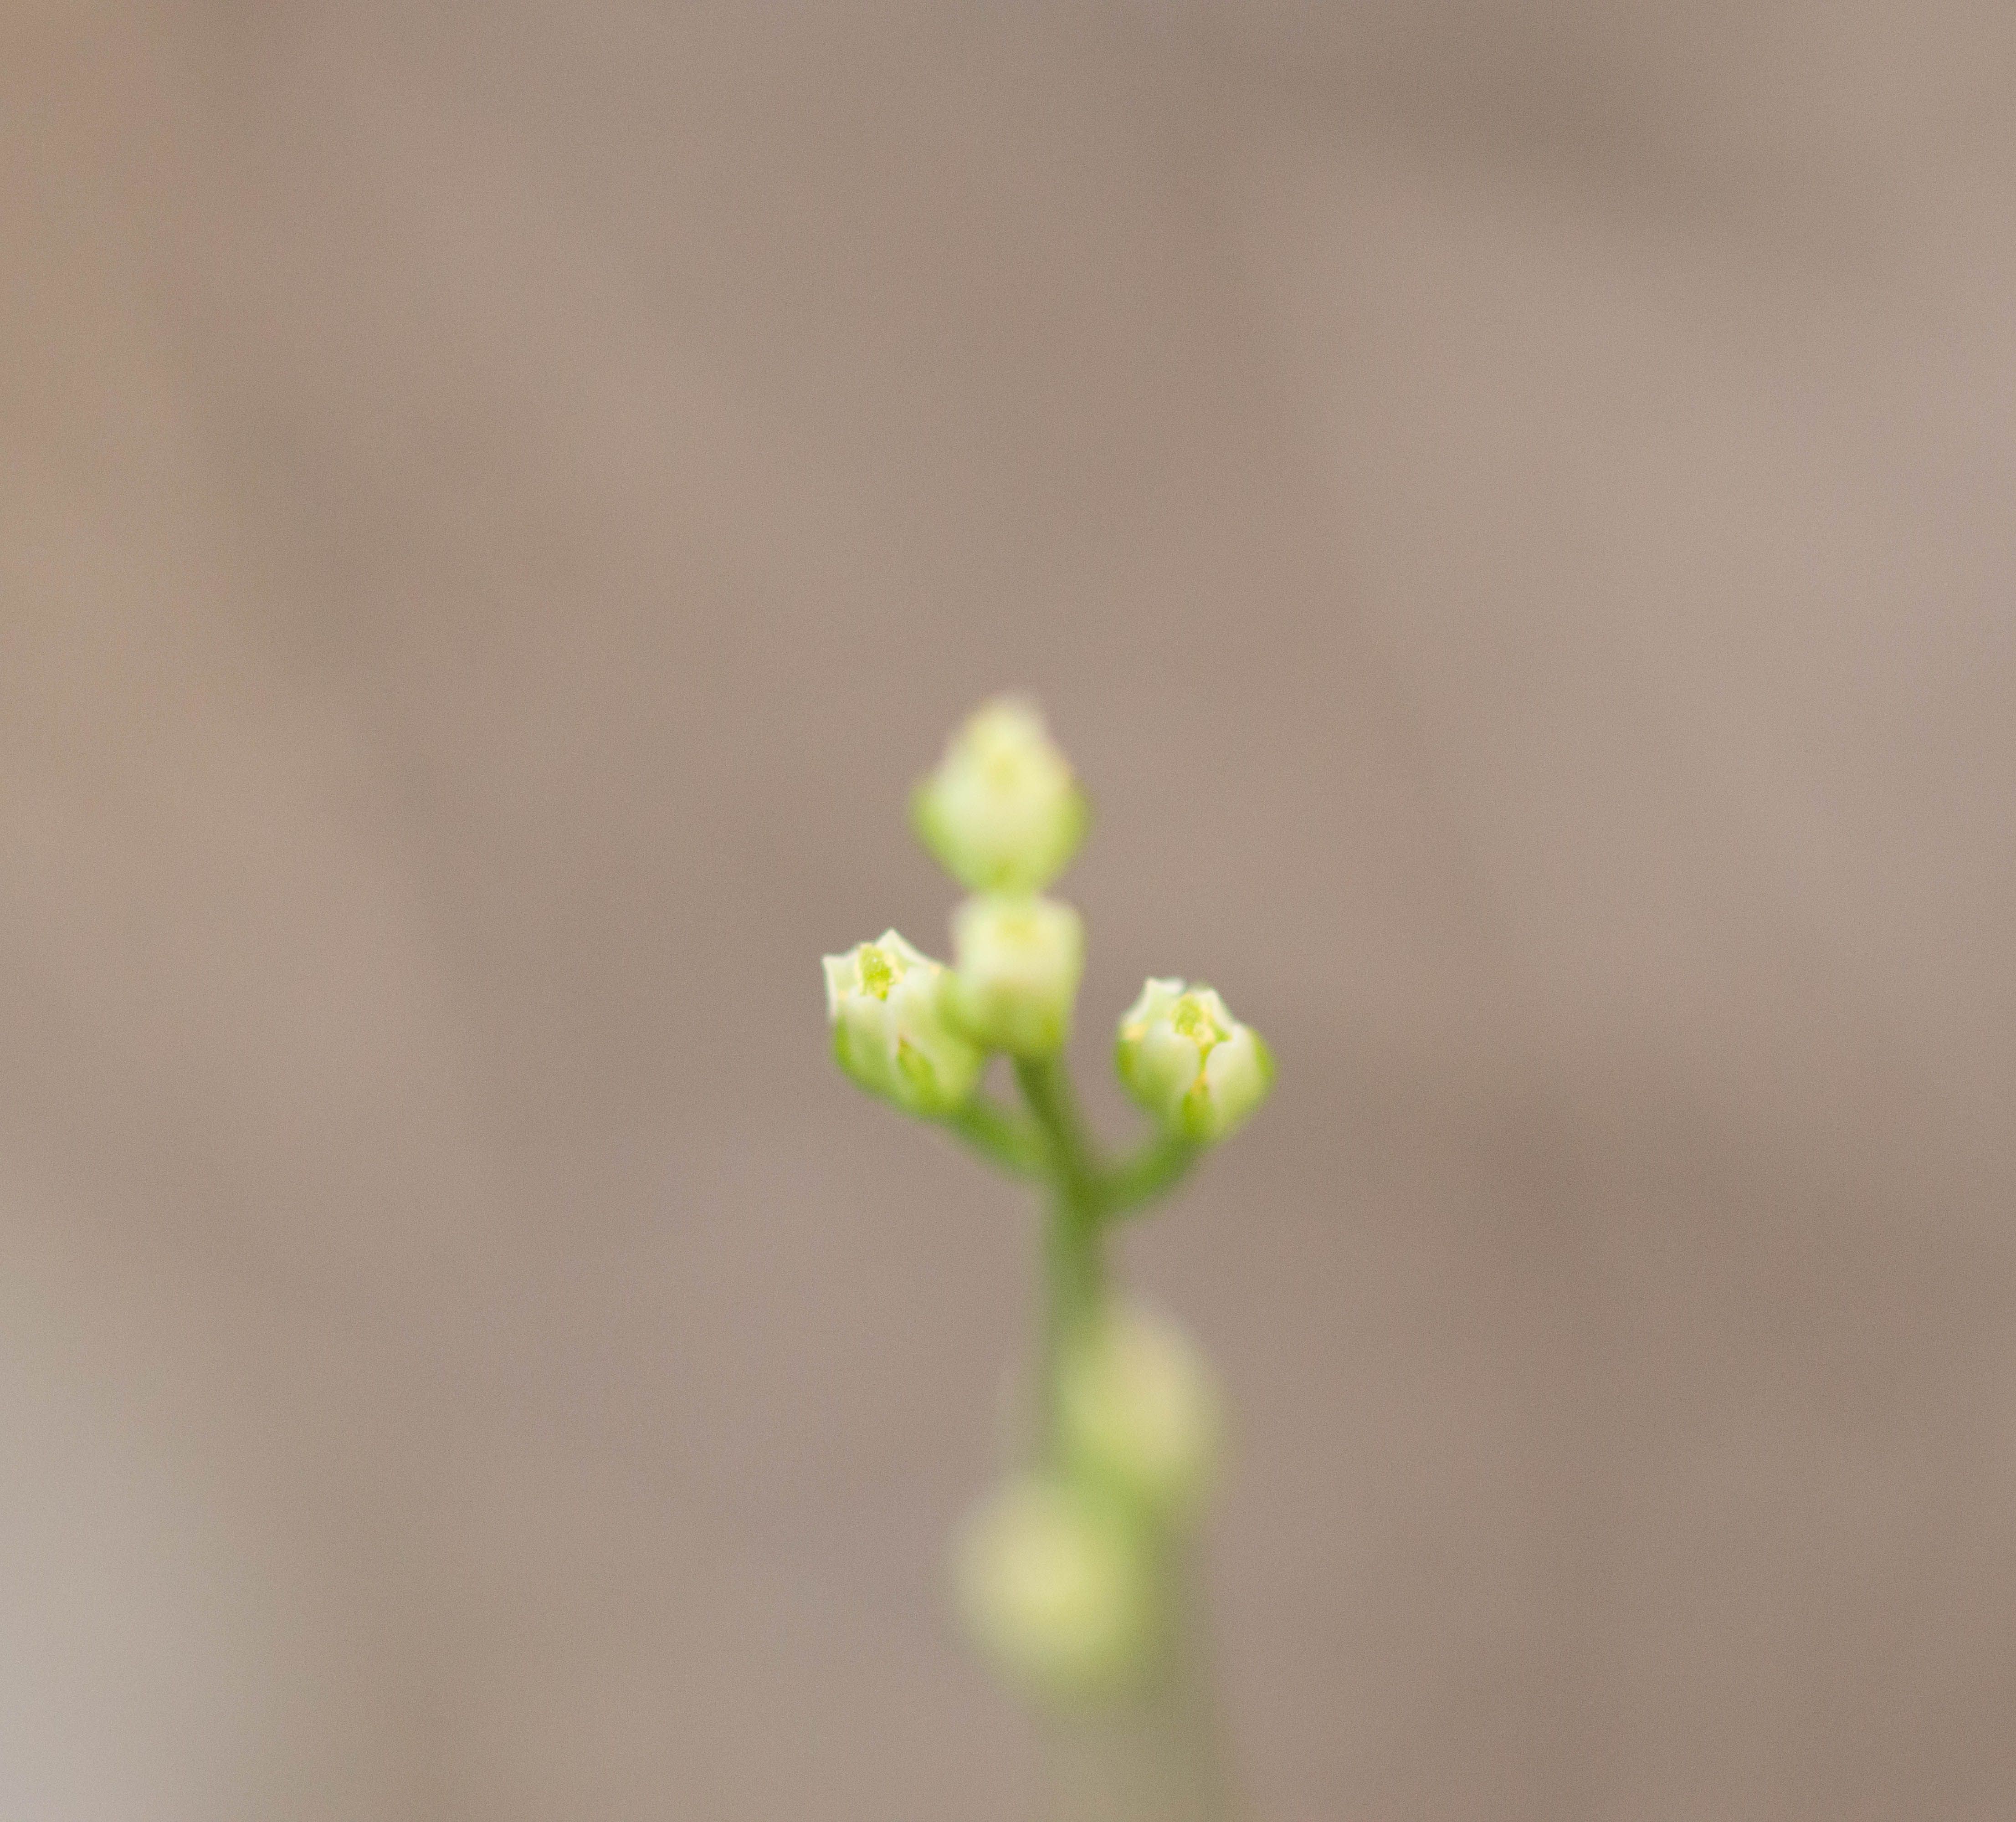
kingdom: Plantae
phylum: Tracheophyta
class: Magnoliopsida
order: Gentianales
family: Gentianaceae
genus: Bartonia
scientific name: Bartonia virginica
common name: Yellow bartonia
